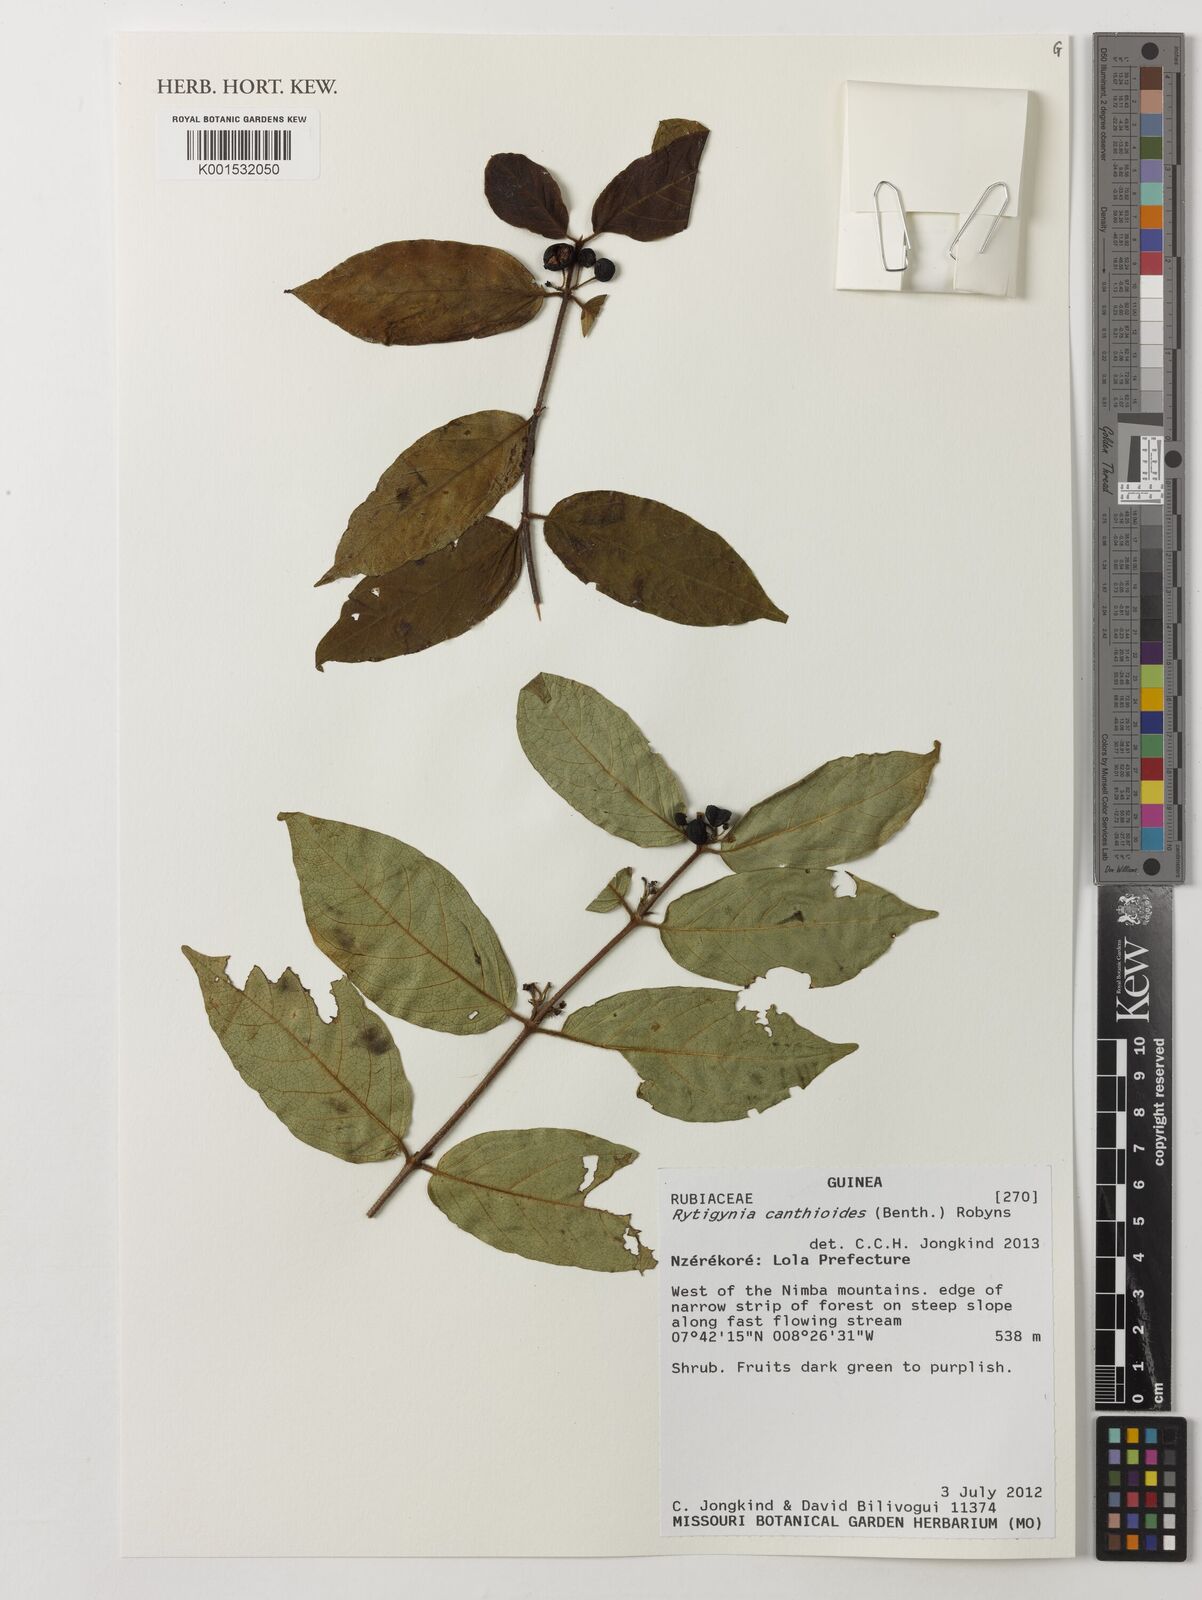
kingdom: Plantae
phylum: Tracheophyta
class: Magnoliopsida
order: Gentianales
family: Rubiaceae
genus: Rytigynia
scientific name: Rytigynia canthioides
